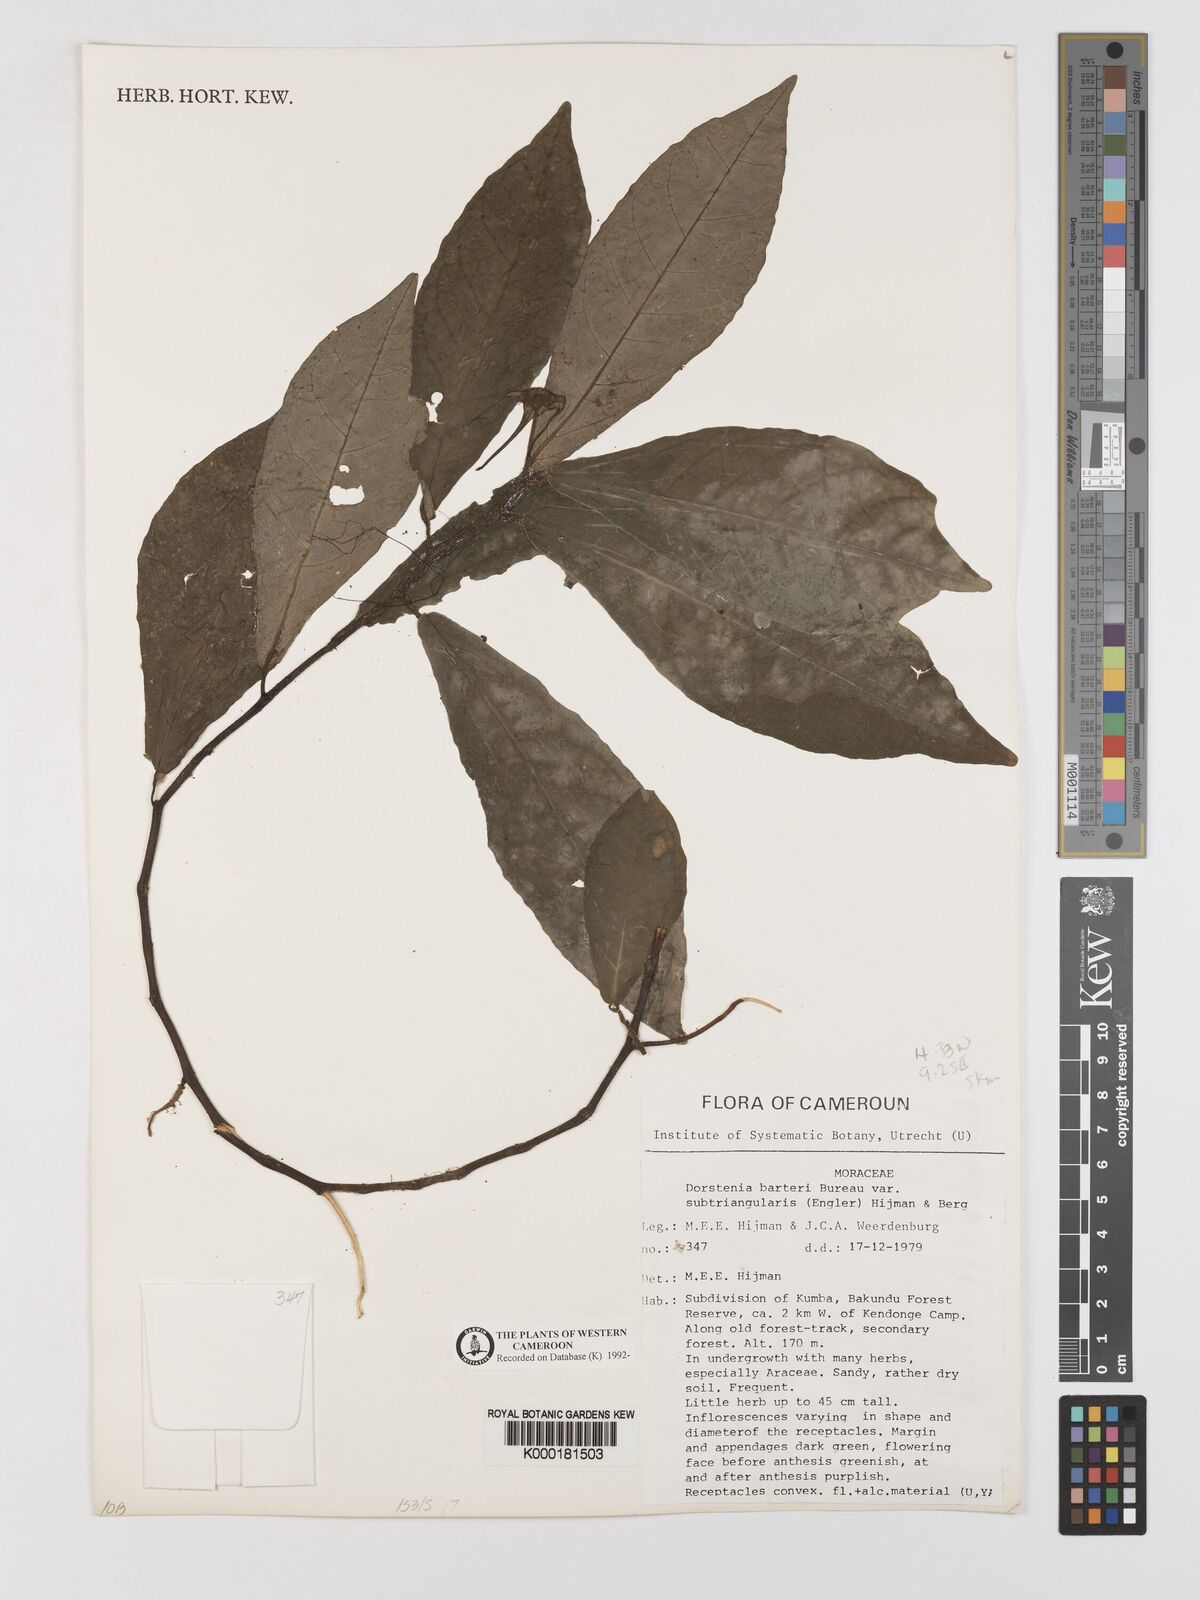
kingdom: Plantae
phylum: Tracheophyta
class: Magnoliopsida
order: Rosales
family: Moraceae
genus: Dorstenia
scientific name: Dorstenia barteri
